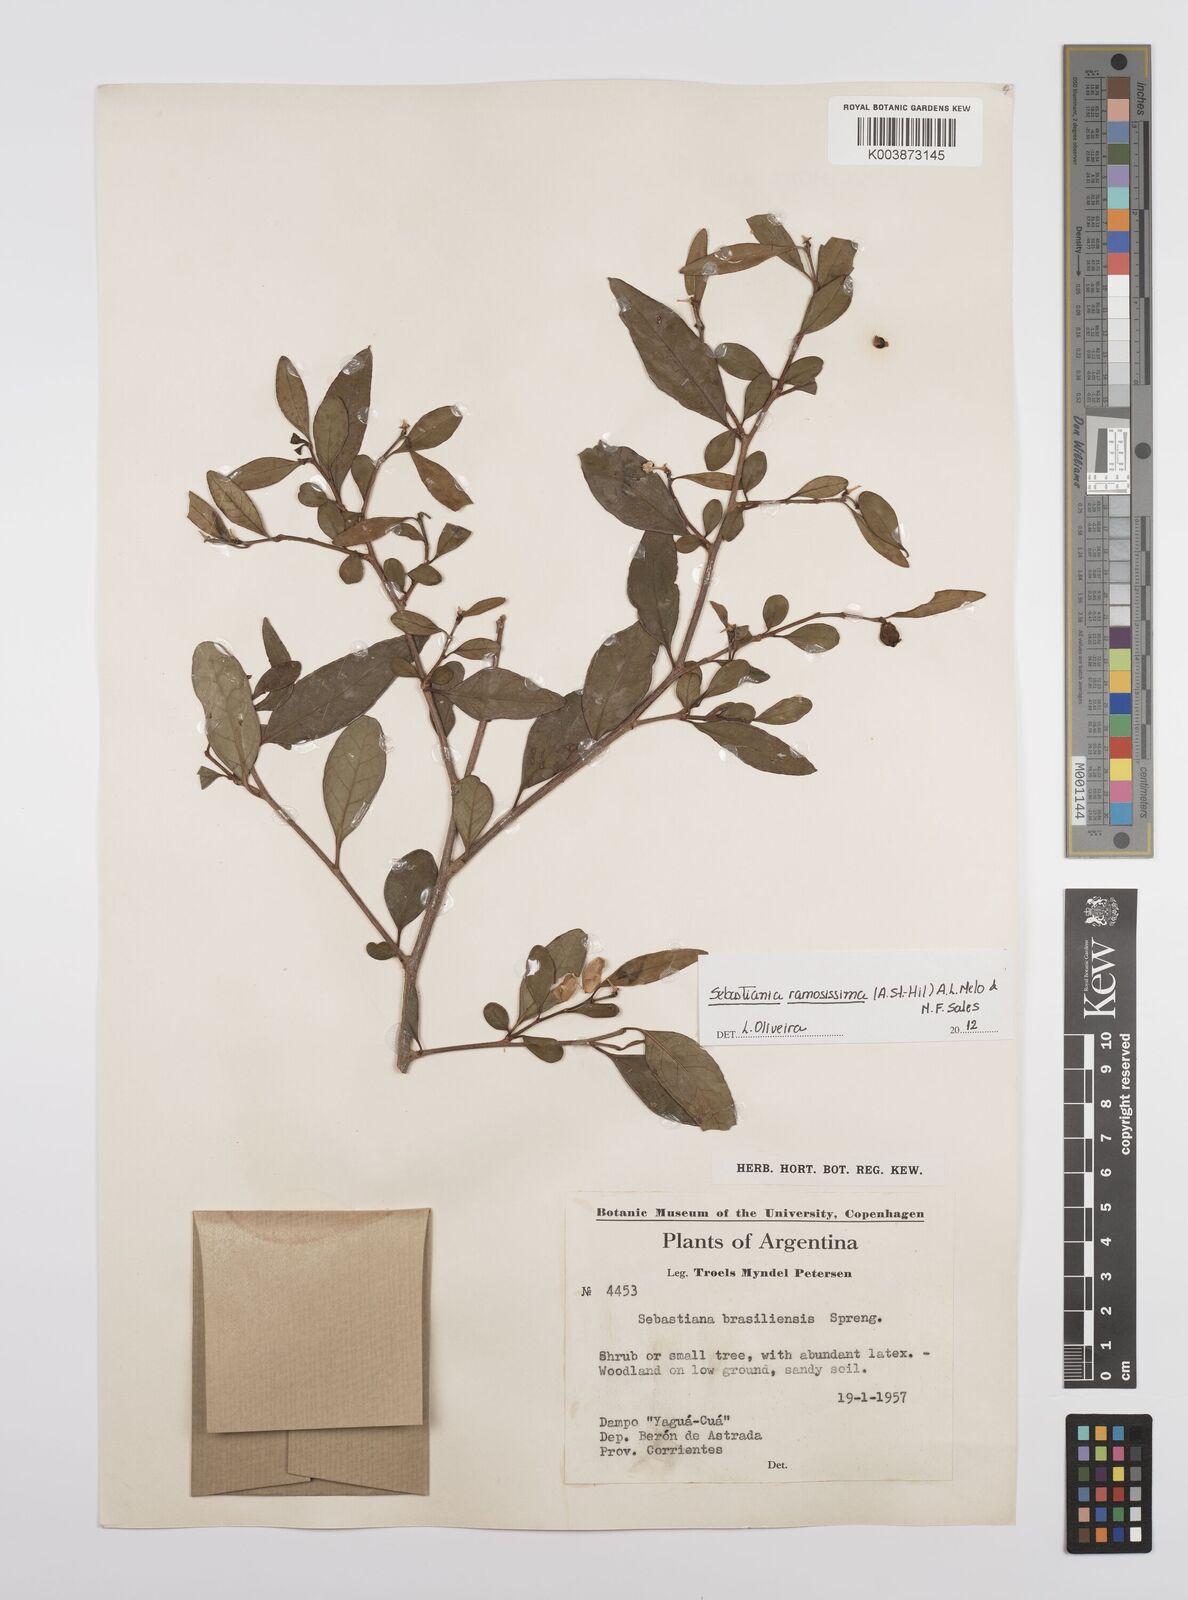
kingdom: Plantae
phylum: Tracheophyta
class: Magnoliopsida
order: Malpighiales
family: Euphorbiaceae
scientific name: Euphorbiaceae
